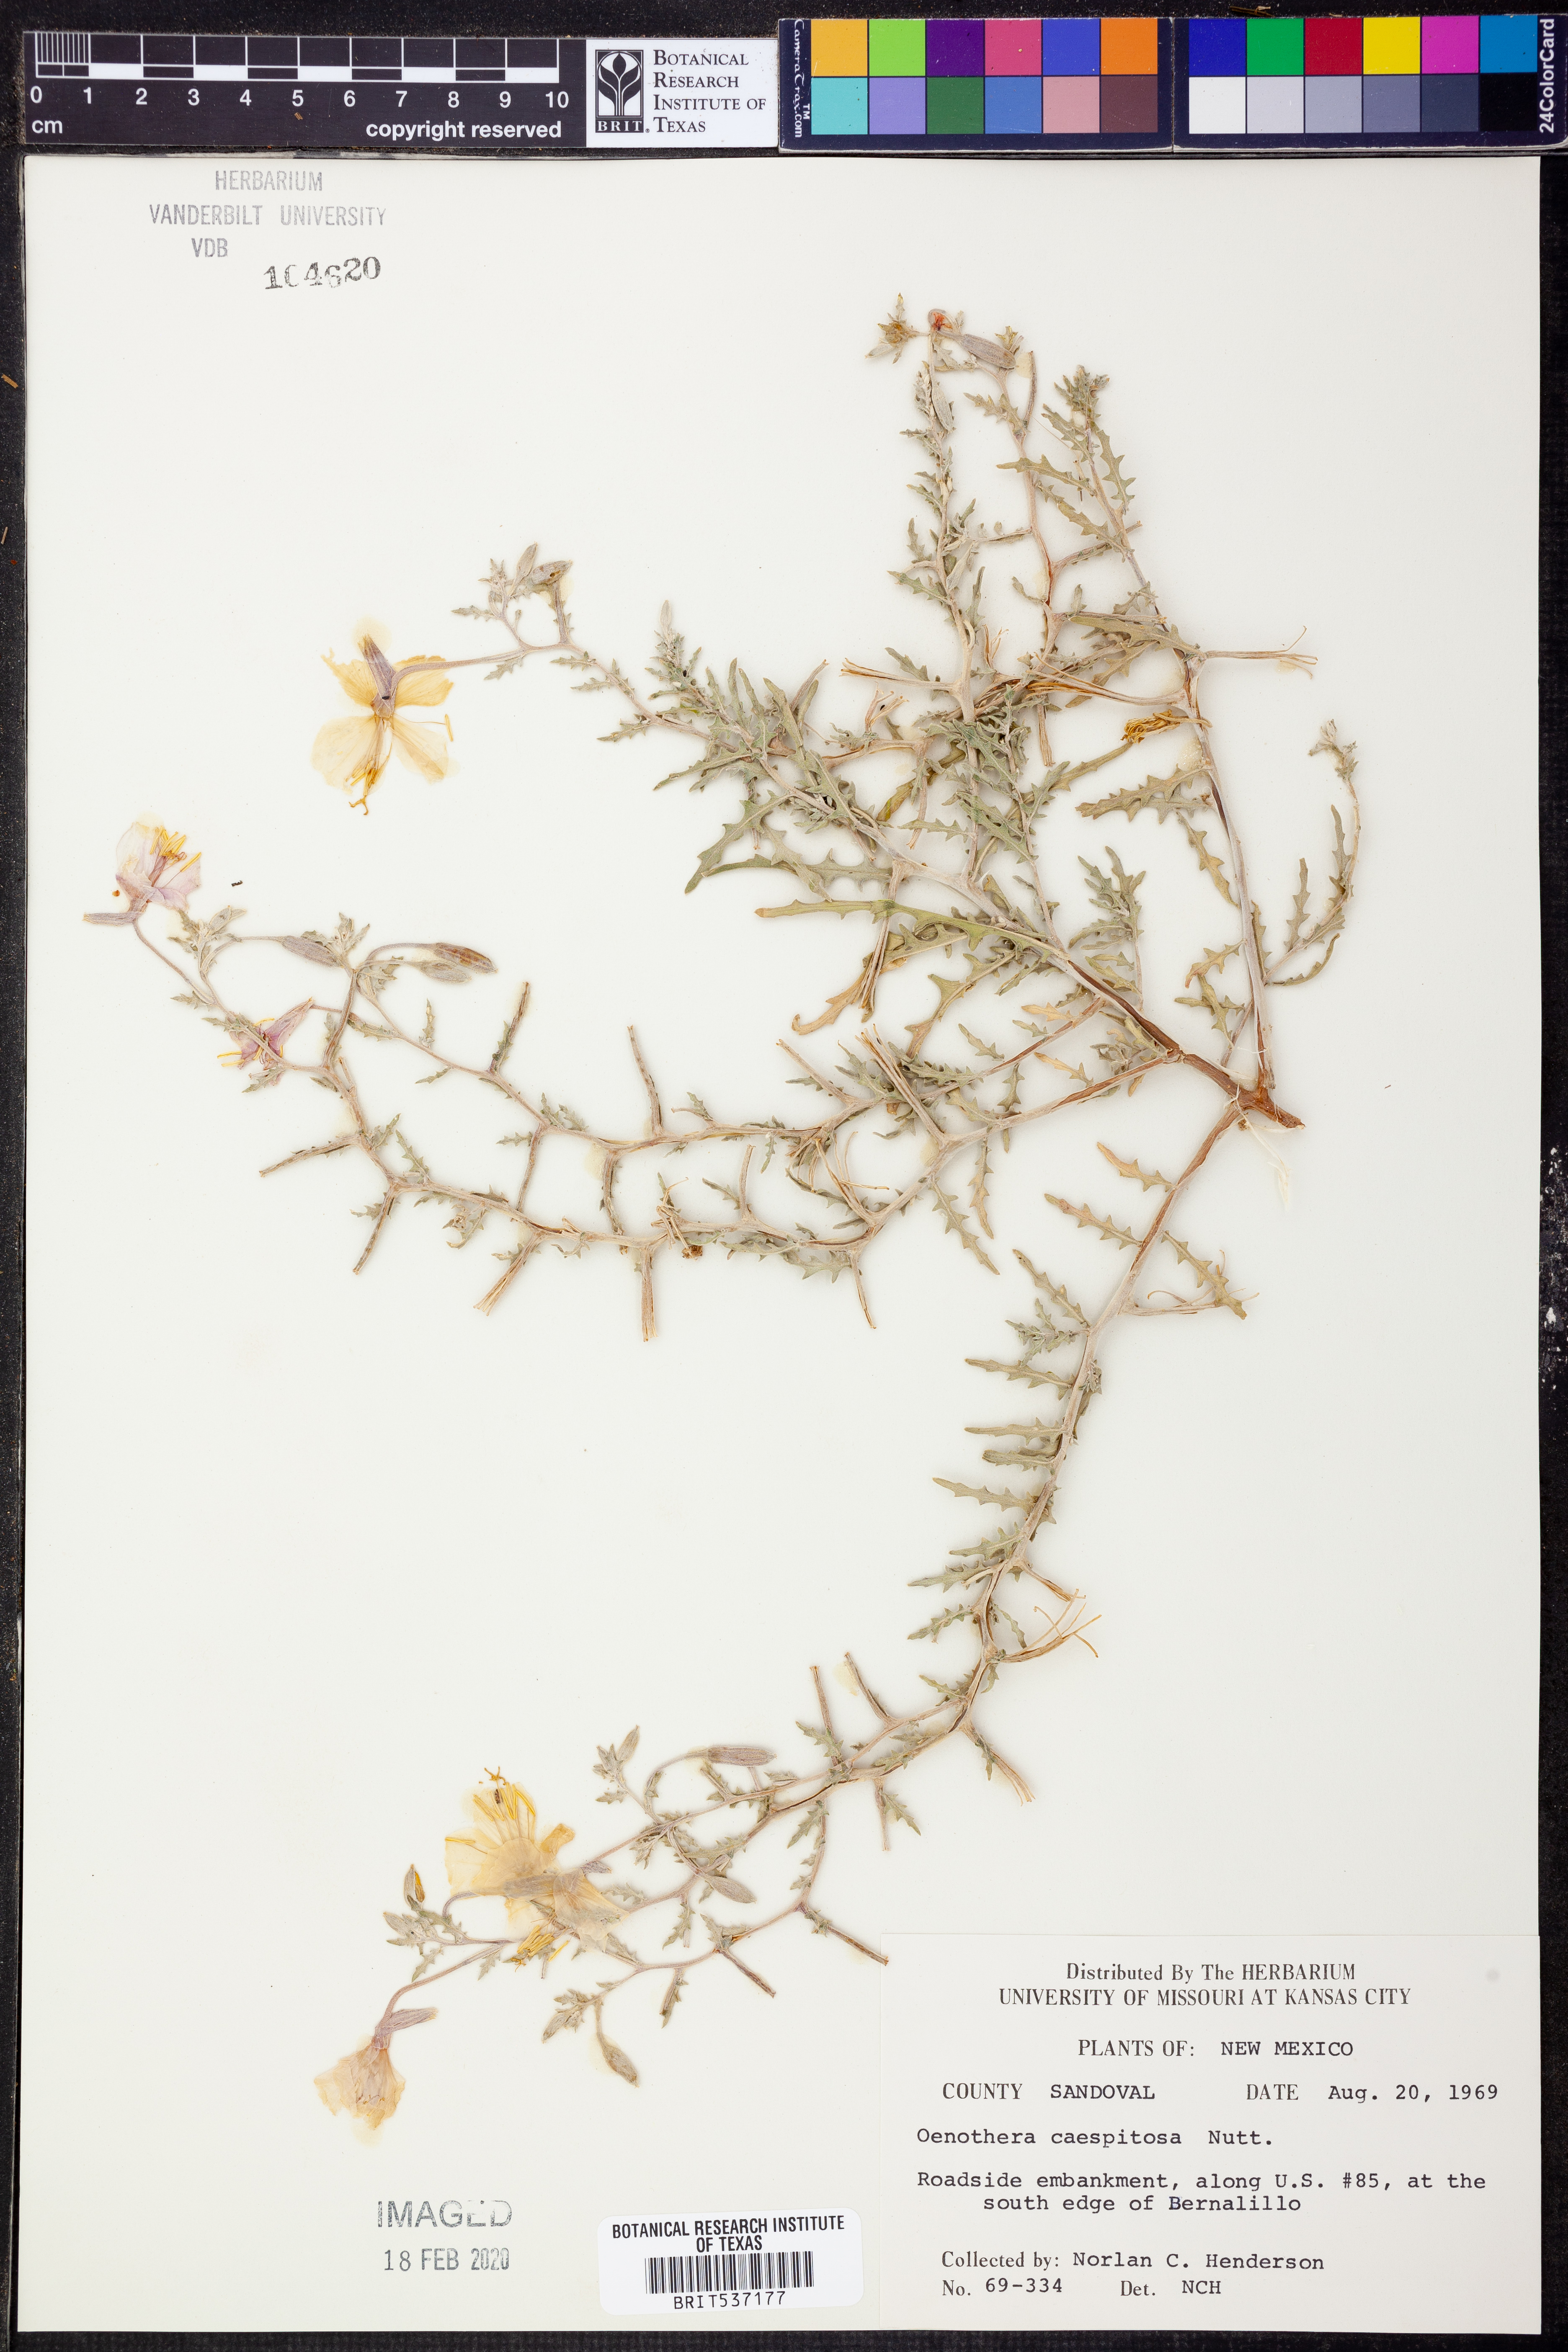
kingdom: Plantae
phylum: Tracheophyta
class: Magnoliopsida
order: Myrtales
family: Onagraceae
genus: Oenothera
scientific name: Oenothera cespitosa
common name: Tufted evening-primrose
